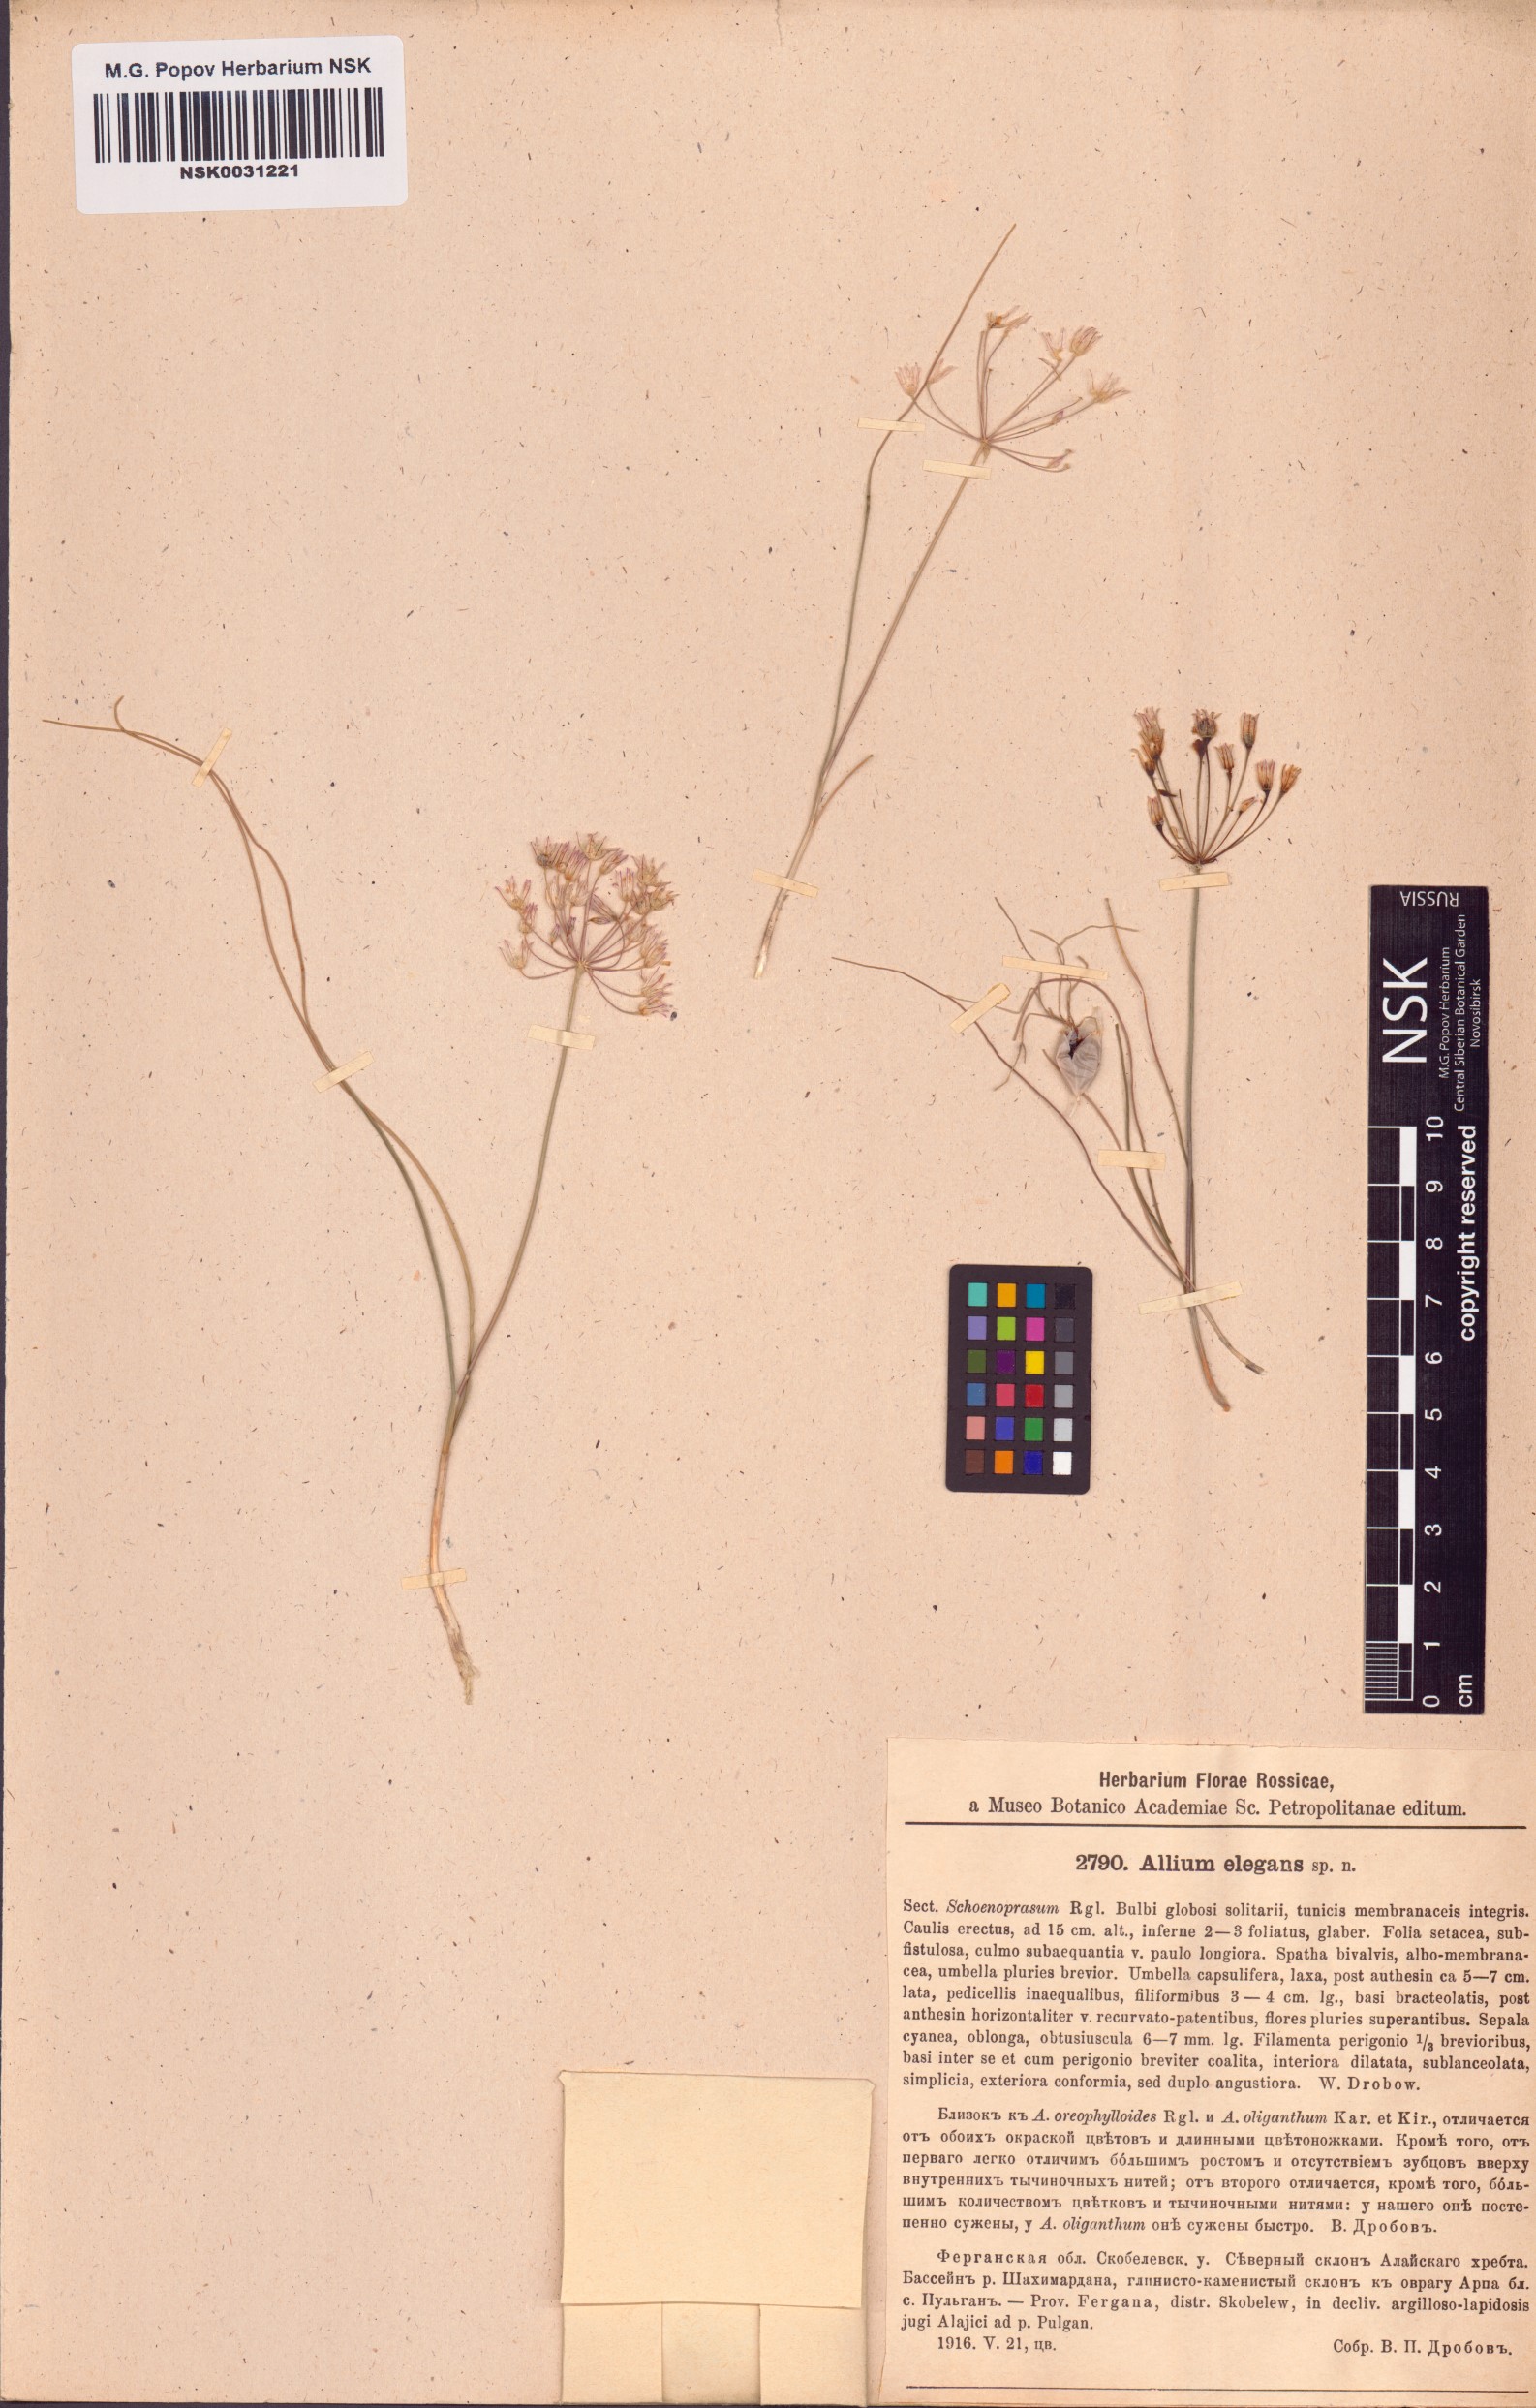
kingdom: Plantae
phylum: Tracheophyta
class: Liliopsida
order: Asparagales
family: Amaryllidaceae
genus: Allium
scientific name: Allium elegans
